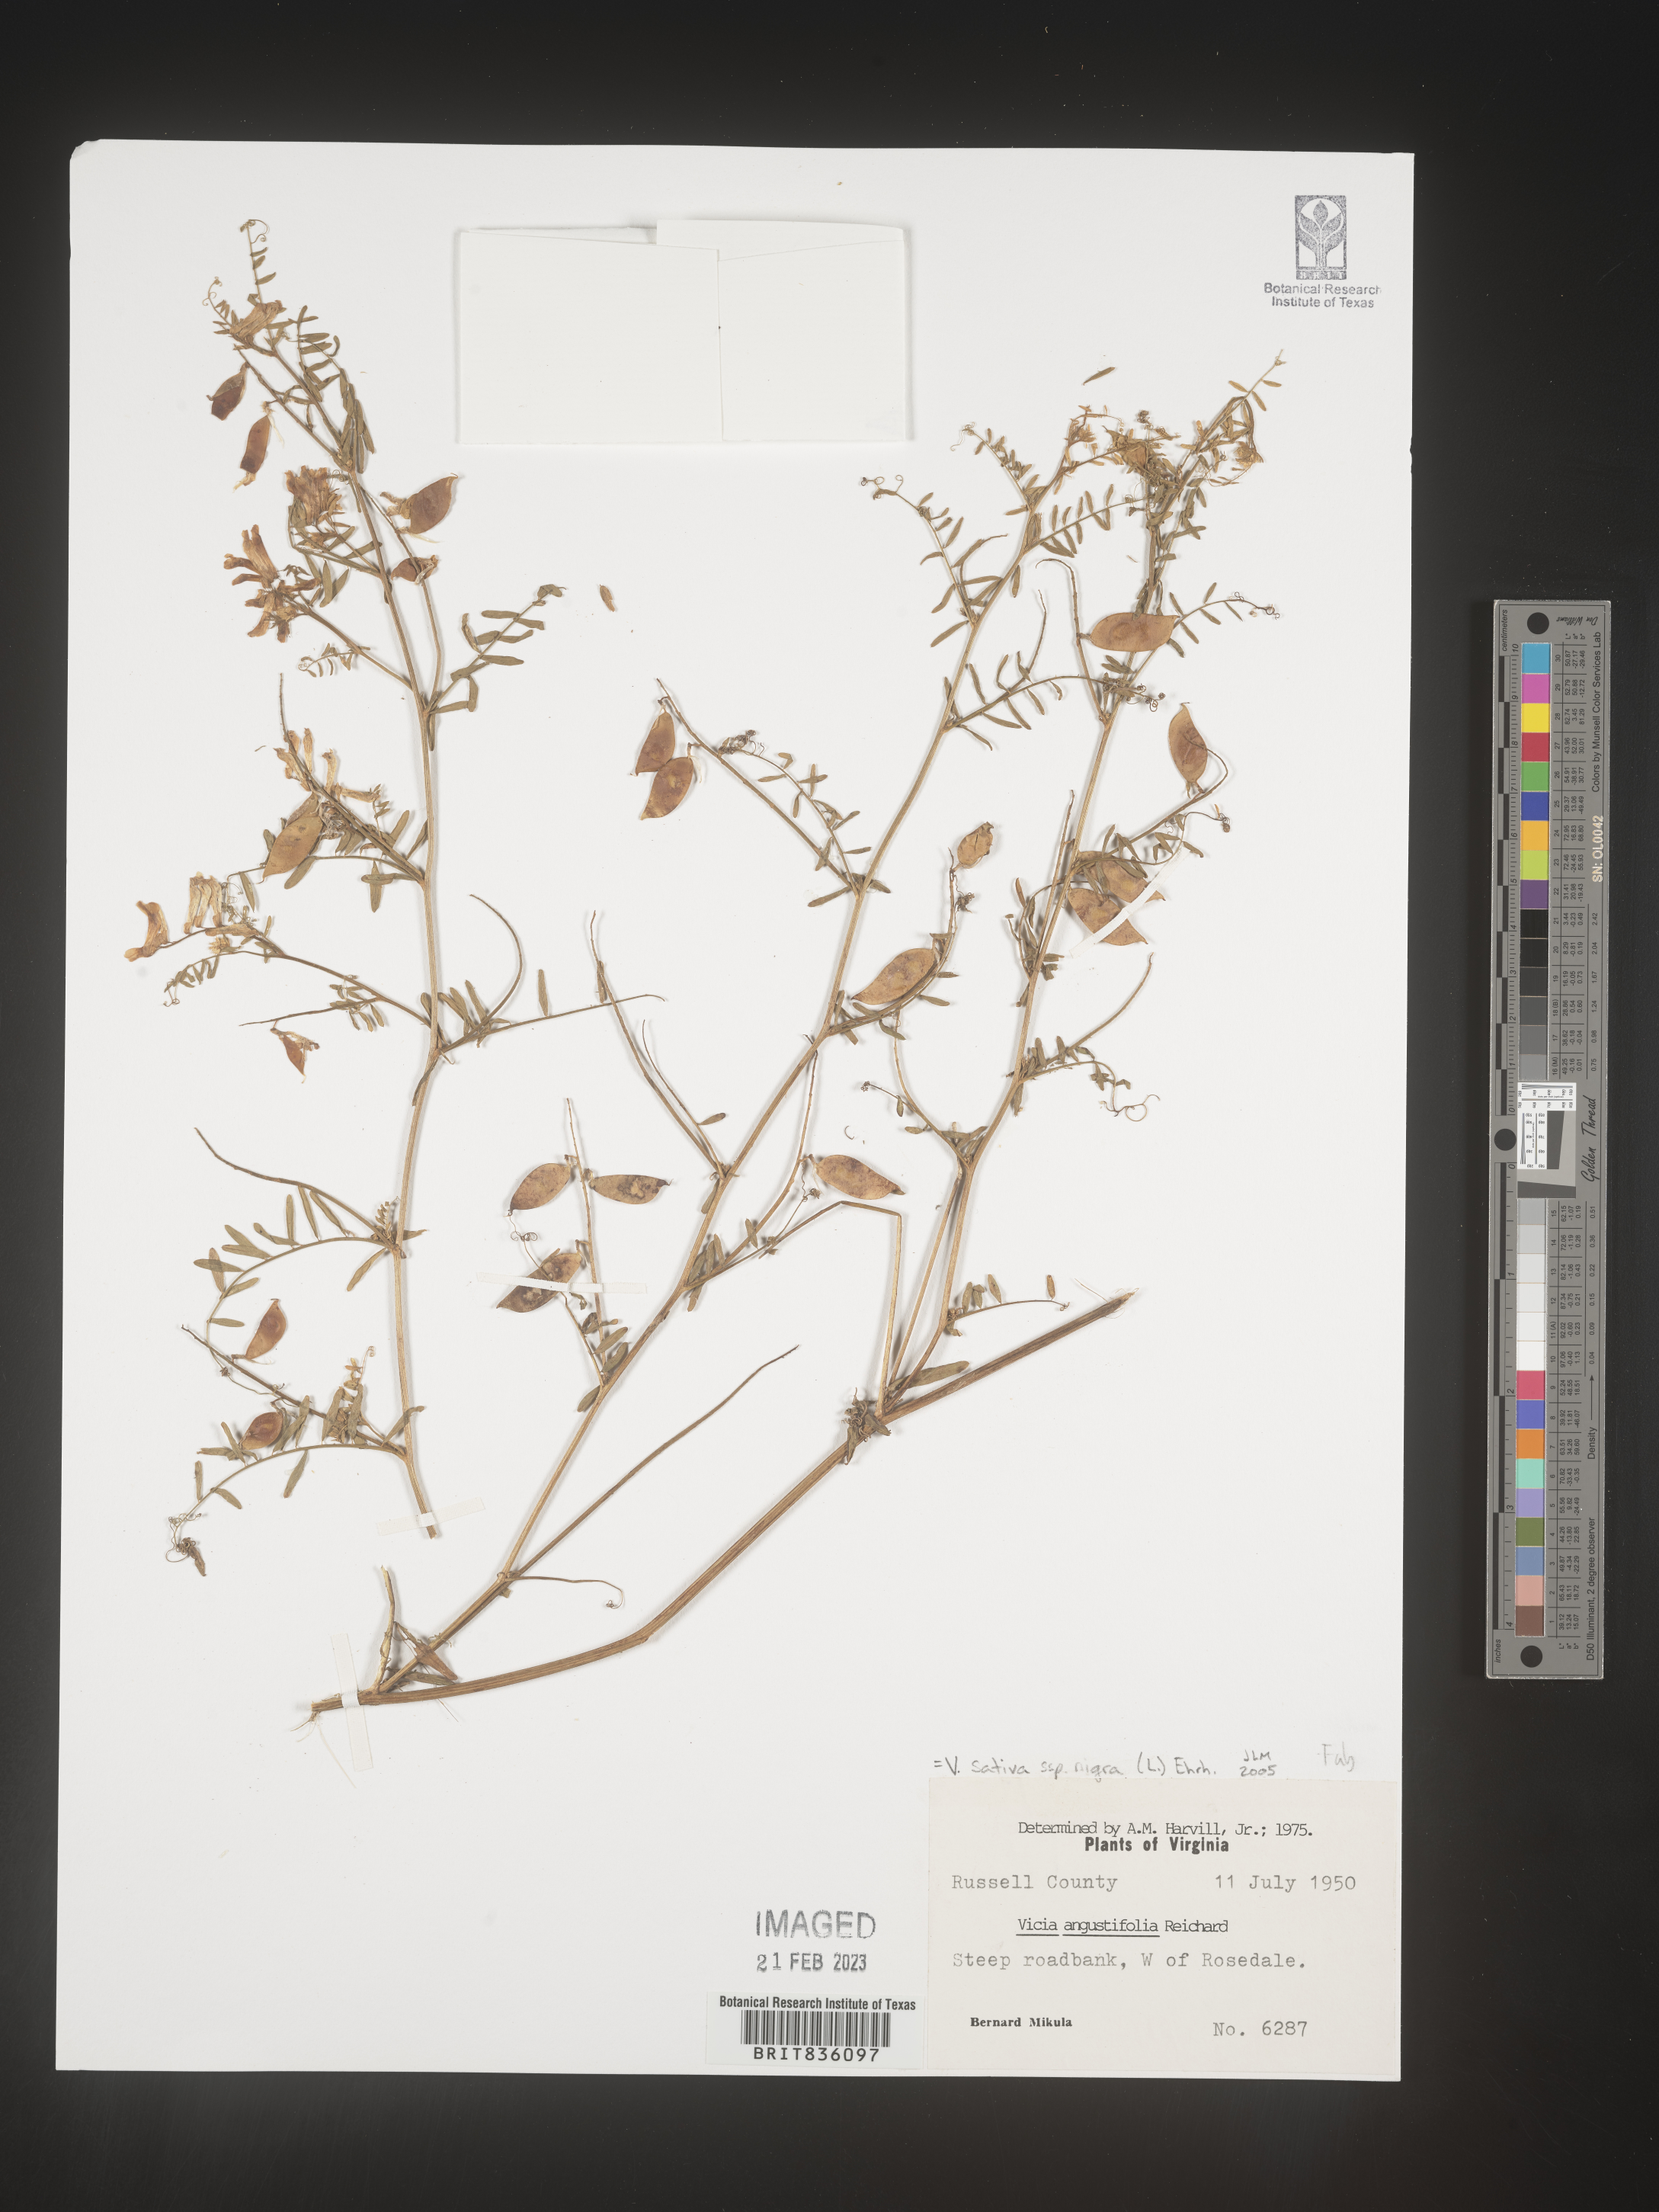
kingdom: Plantae
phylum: Tracheophyta
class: Magnoliopsida
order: Fabales
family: Fabaceae
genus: Vicia
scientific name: Vicia sativa
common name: Garden vetch
